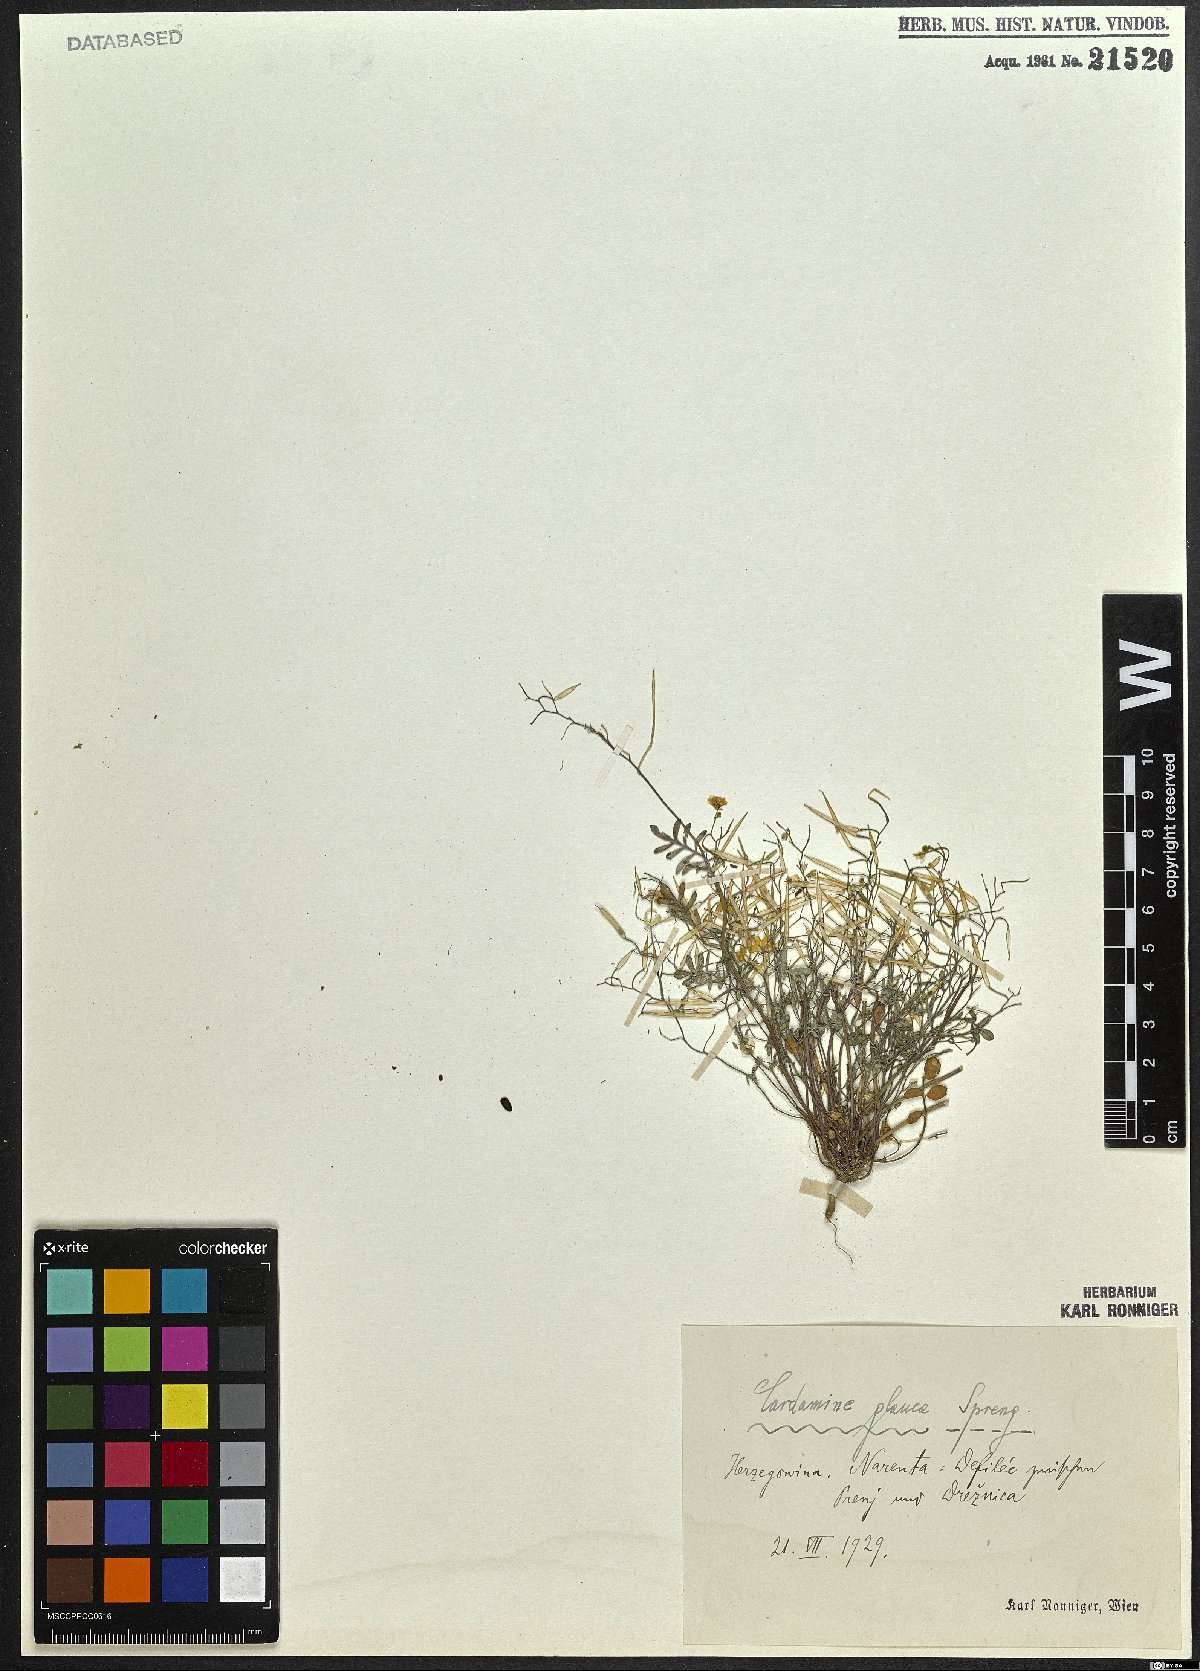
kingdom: Plantae
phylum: Tracheophyta
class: Magnoliopsida
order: Brassicales
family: Brassicaceae
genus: Cardamine
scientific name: Cardamine glauca
